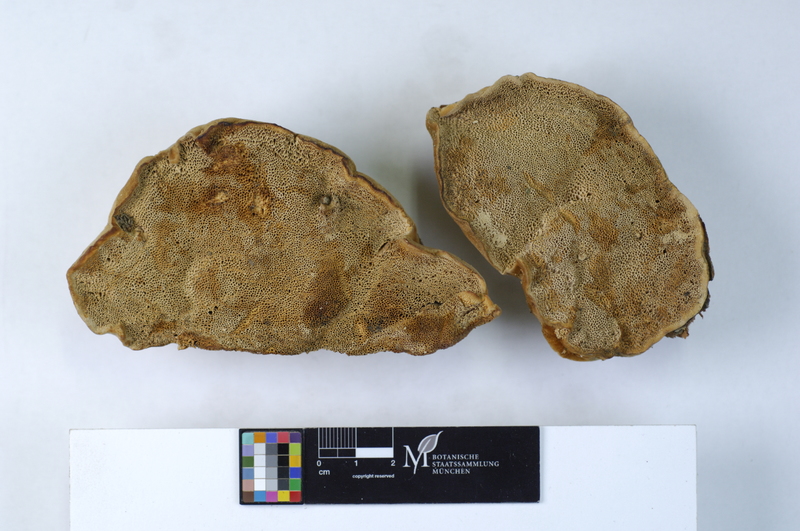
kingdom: Fungi
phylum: Basidiomycota
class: Agaricomycetes
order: Polyporales
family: Polyporaceae
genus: Trametes
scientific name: Trametes suaveolens
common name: Fragrant bracket
